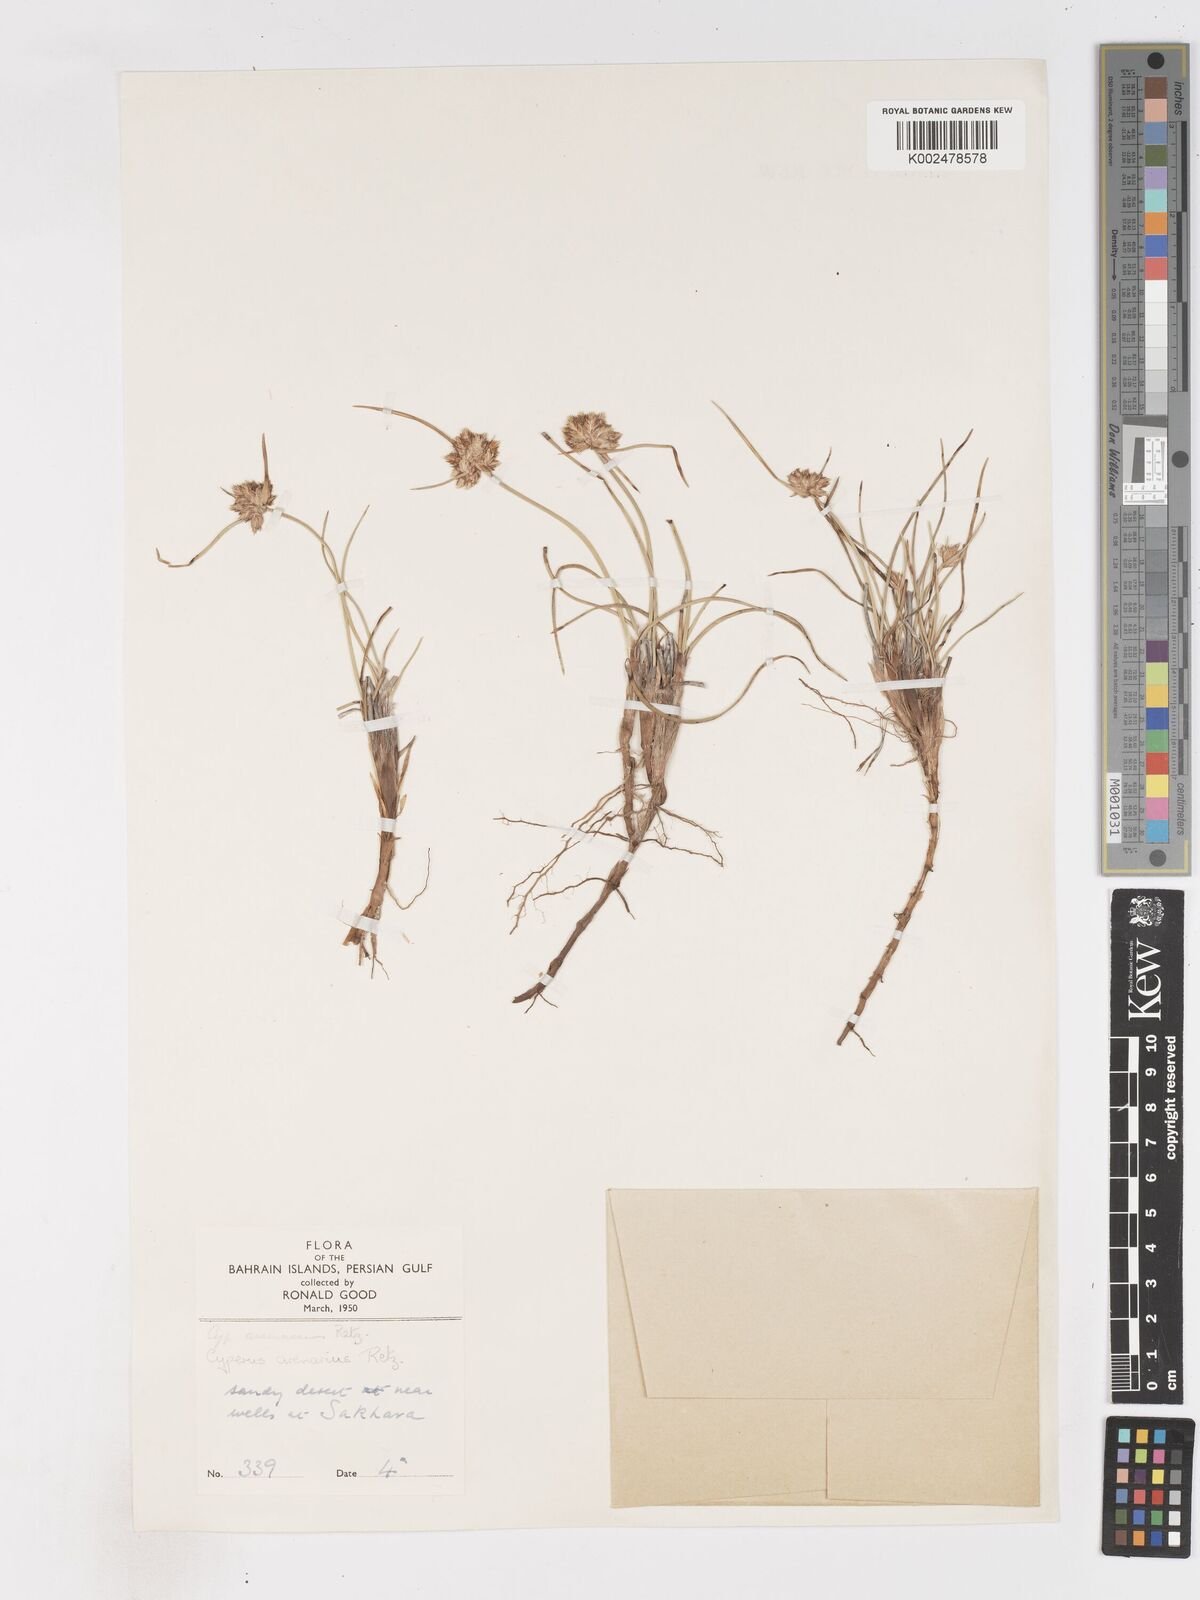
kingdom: Plantae
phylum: Tracheophyta
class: Liliopsida
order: Poales
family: Cyperaceae
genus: Cyperus
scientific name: Cyperus arenarius
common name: Dwarf sedge
